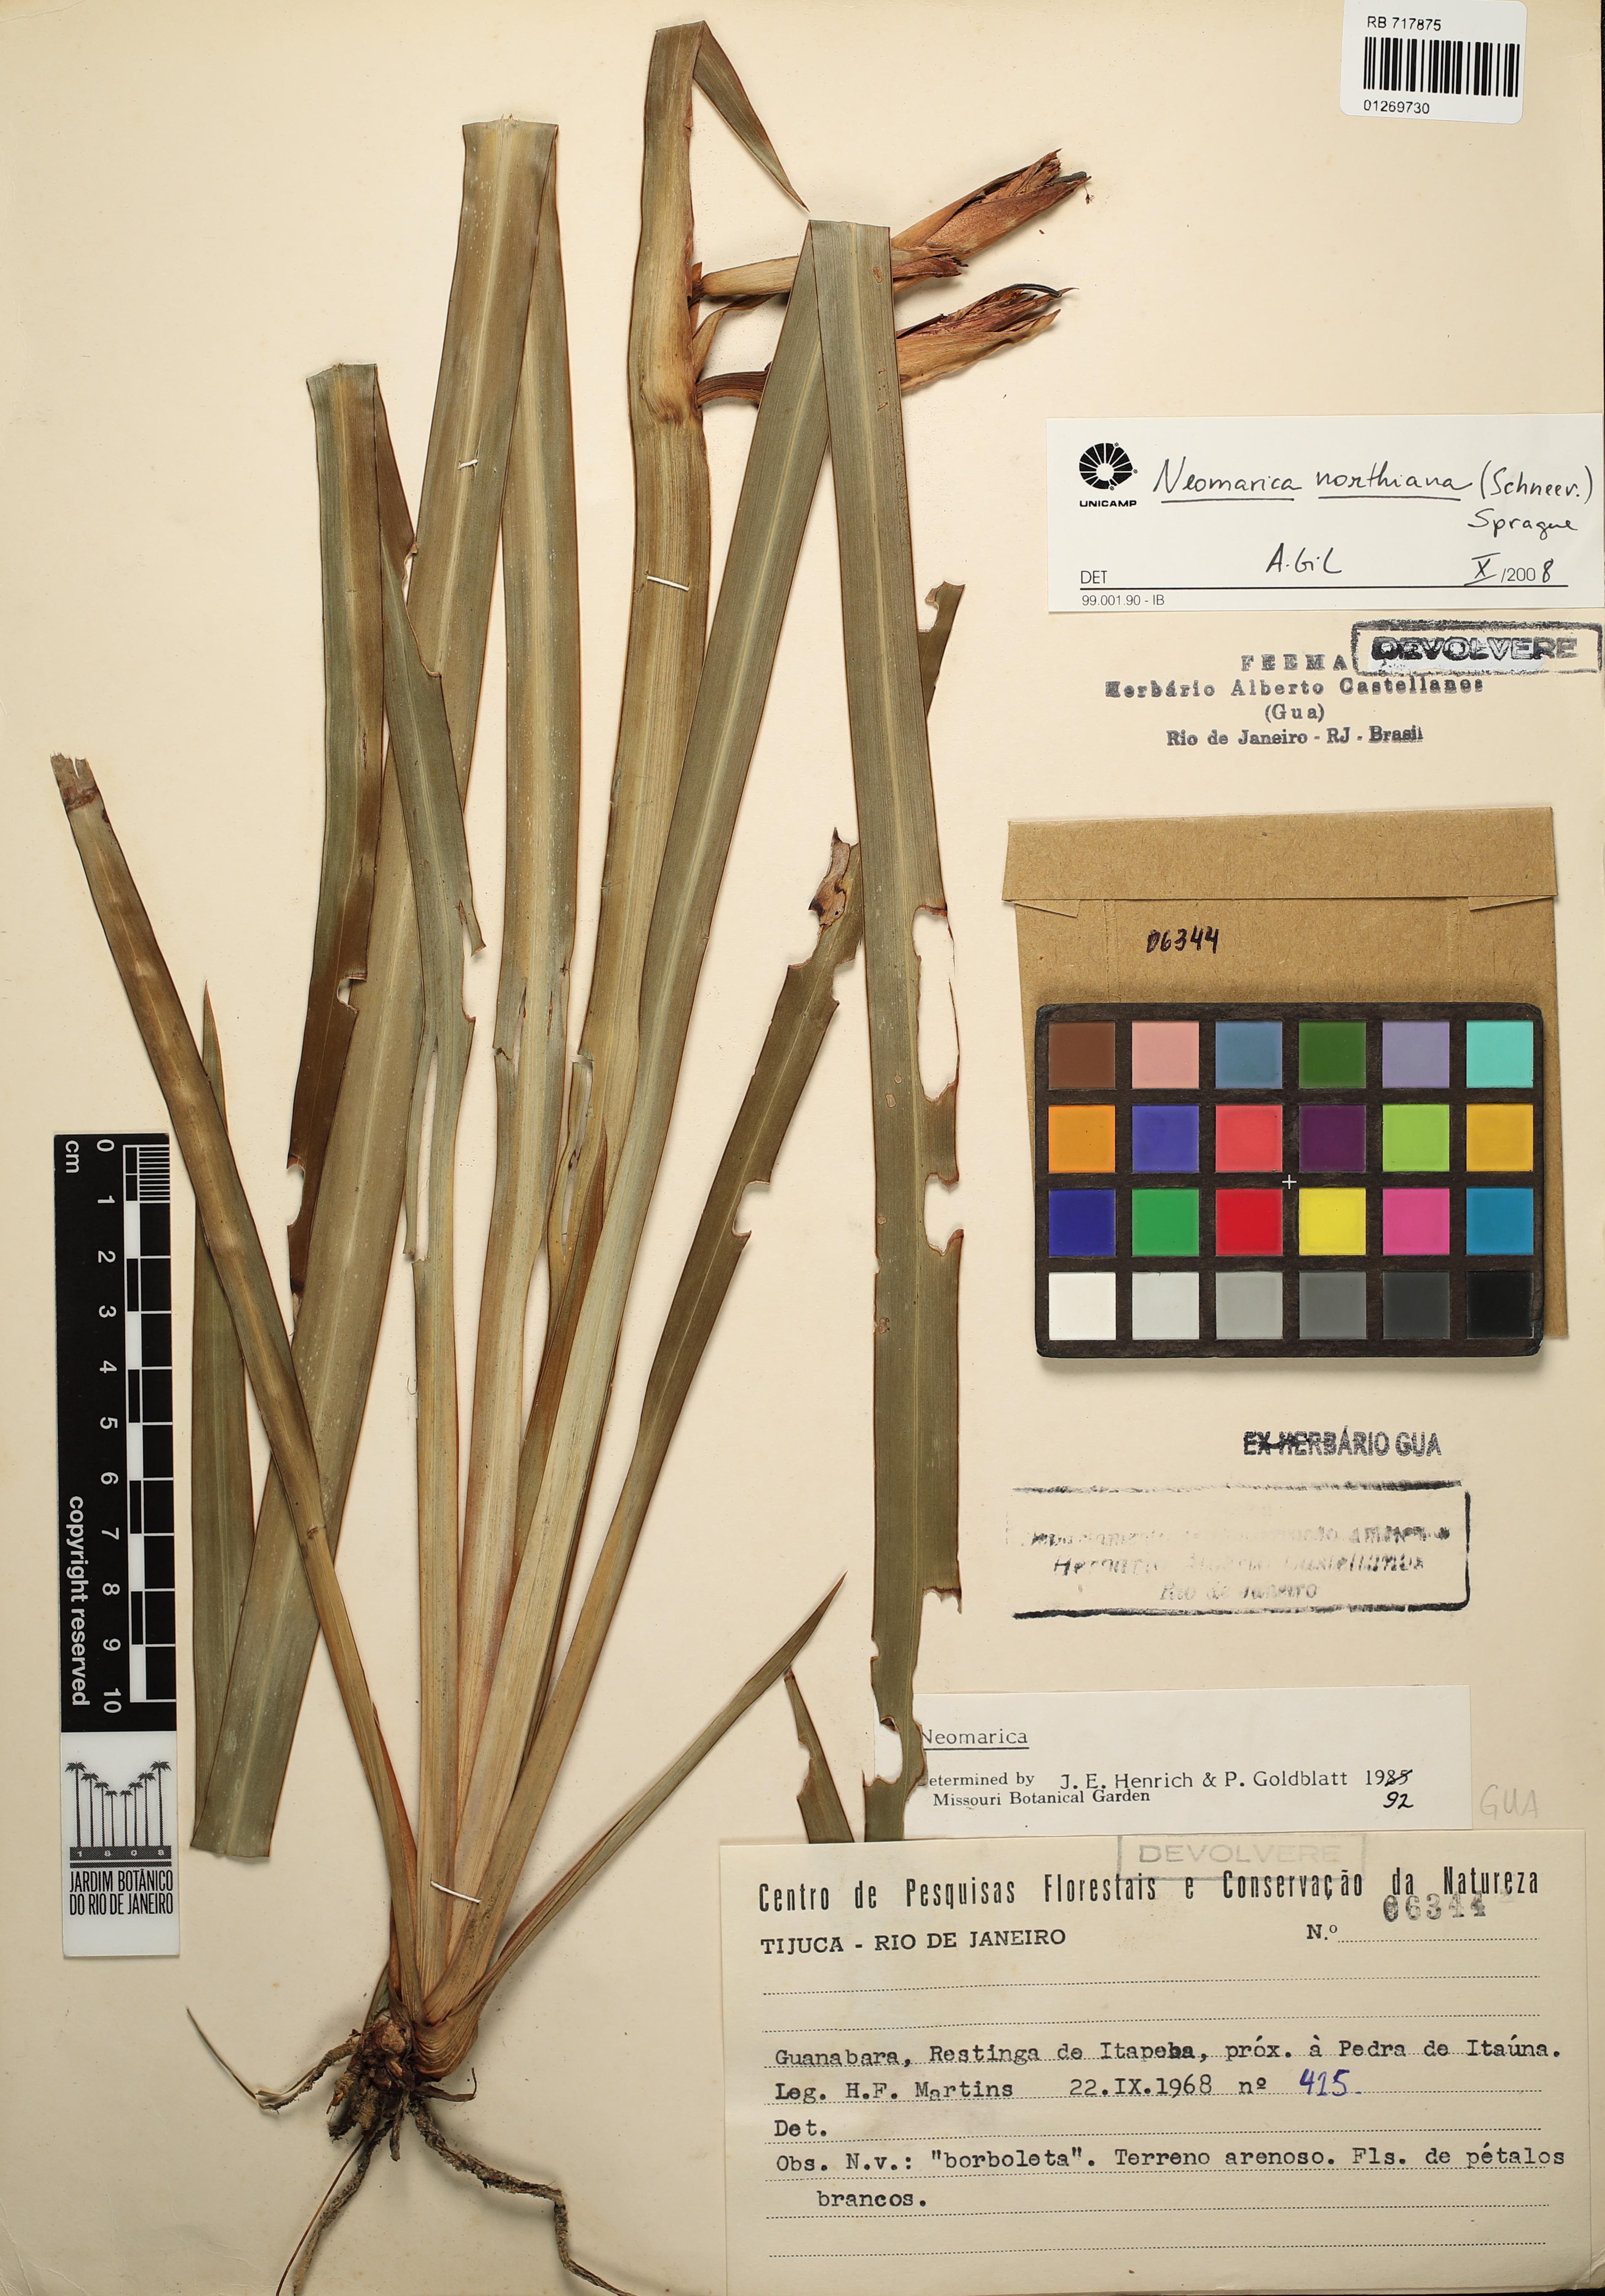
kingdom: Plantae
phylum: Tracheophyta
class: Liliopsida
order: Asparagales
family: Iridaceae
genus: Trimezia
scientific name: Trimezia northiana
